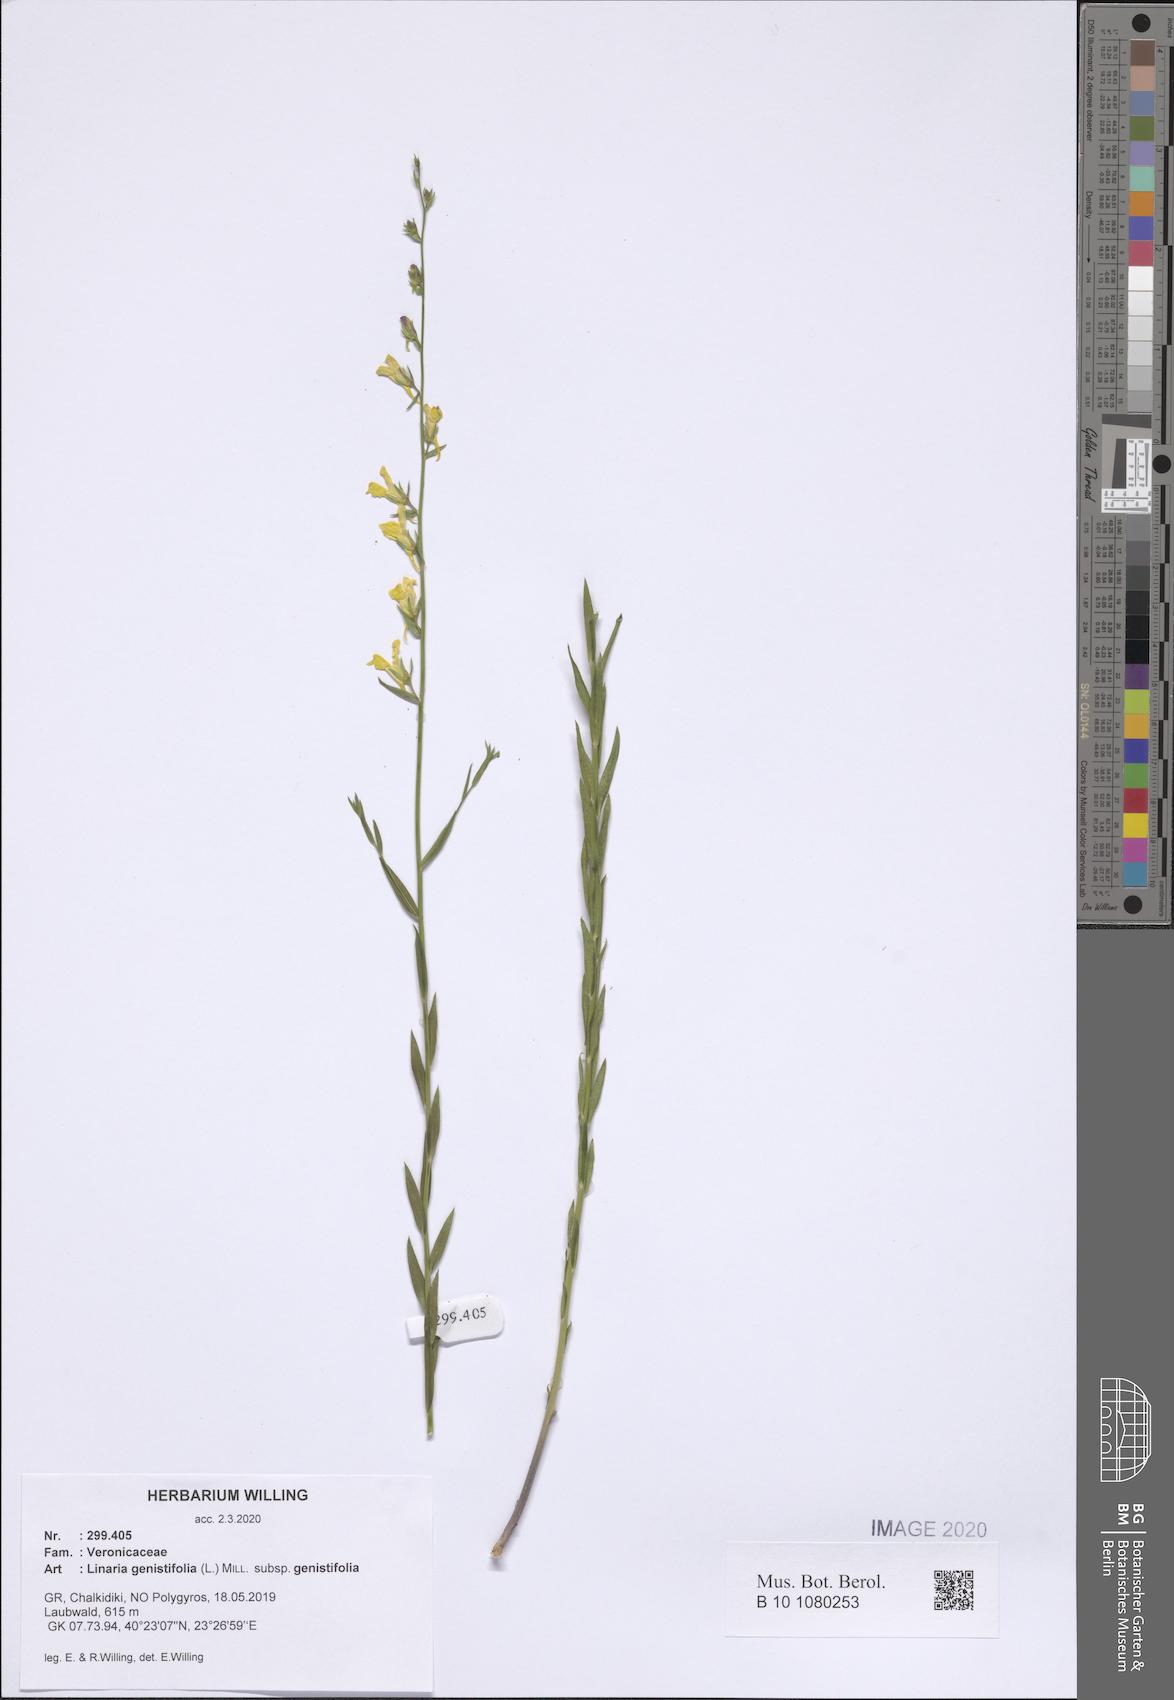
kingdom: Plantae
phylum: Tracheophyta
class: Magnoliopsida
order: Lamiales
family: Plantaginaceae
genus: Linaria
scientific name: Linaria genistifolia
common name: Broomleaf toadflax
